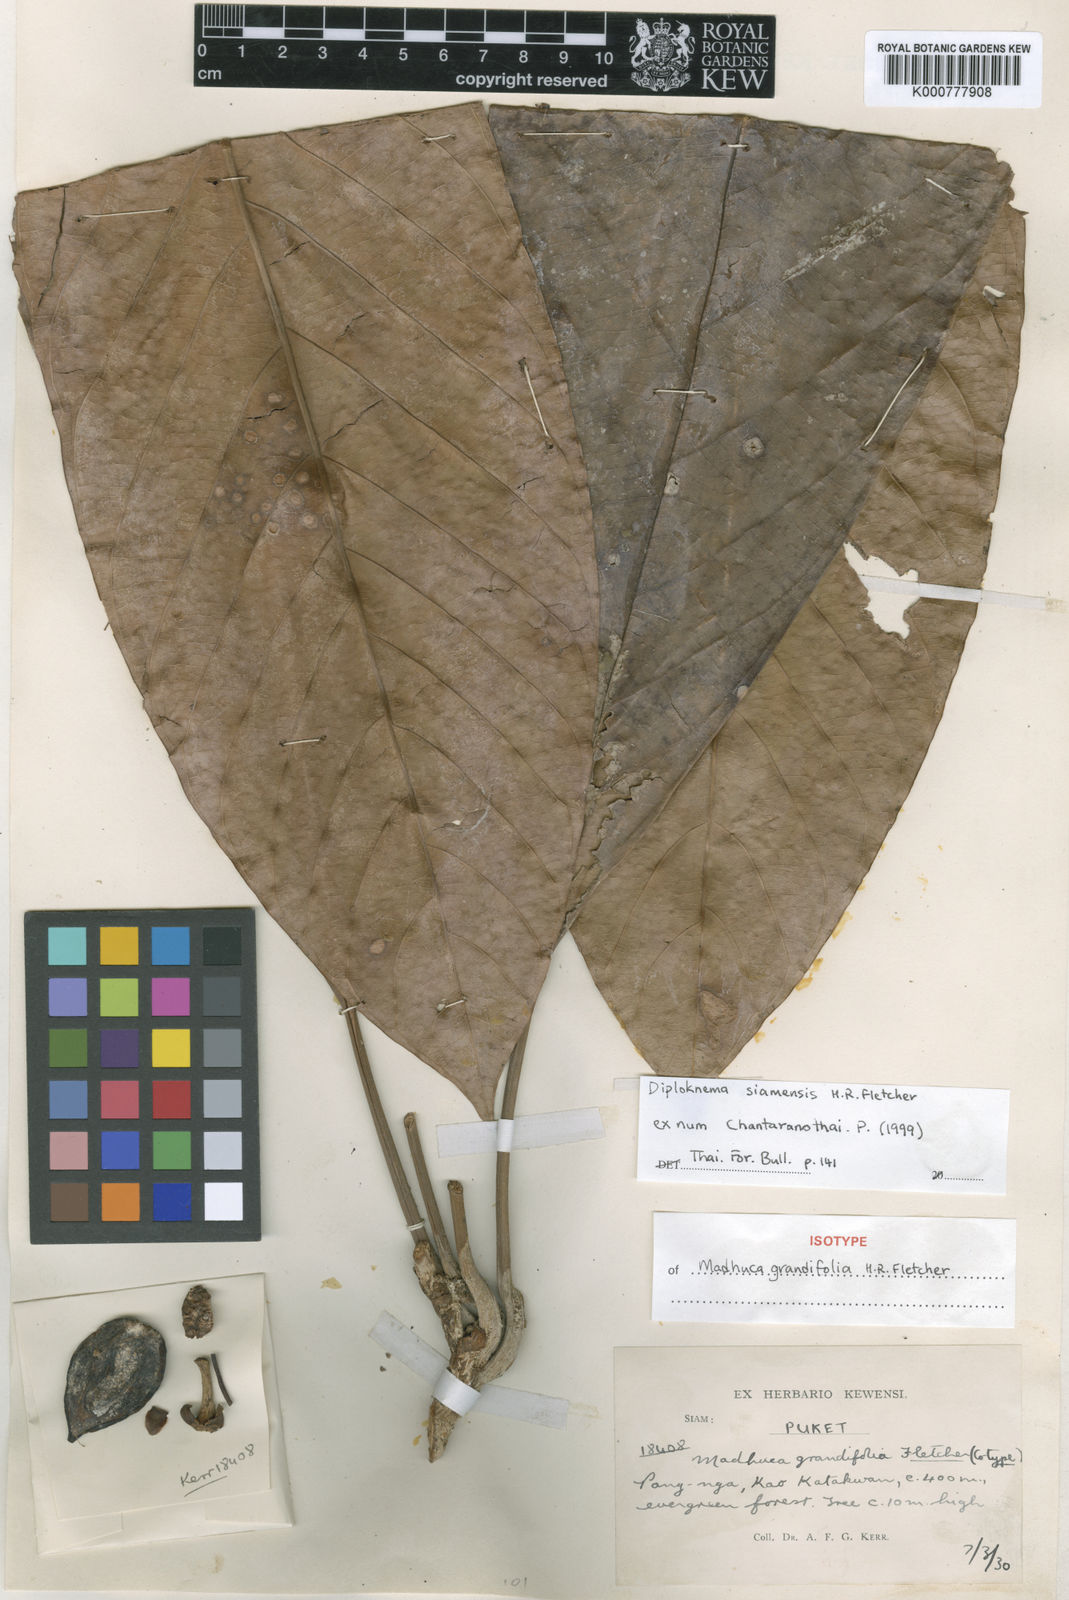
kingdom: Plantae
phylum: Tracheophyta
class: Magnoliopsida
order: Ericales
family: Sapotaceae
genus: Diploknema
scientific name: Diploknema siamensis
